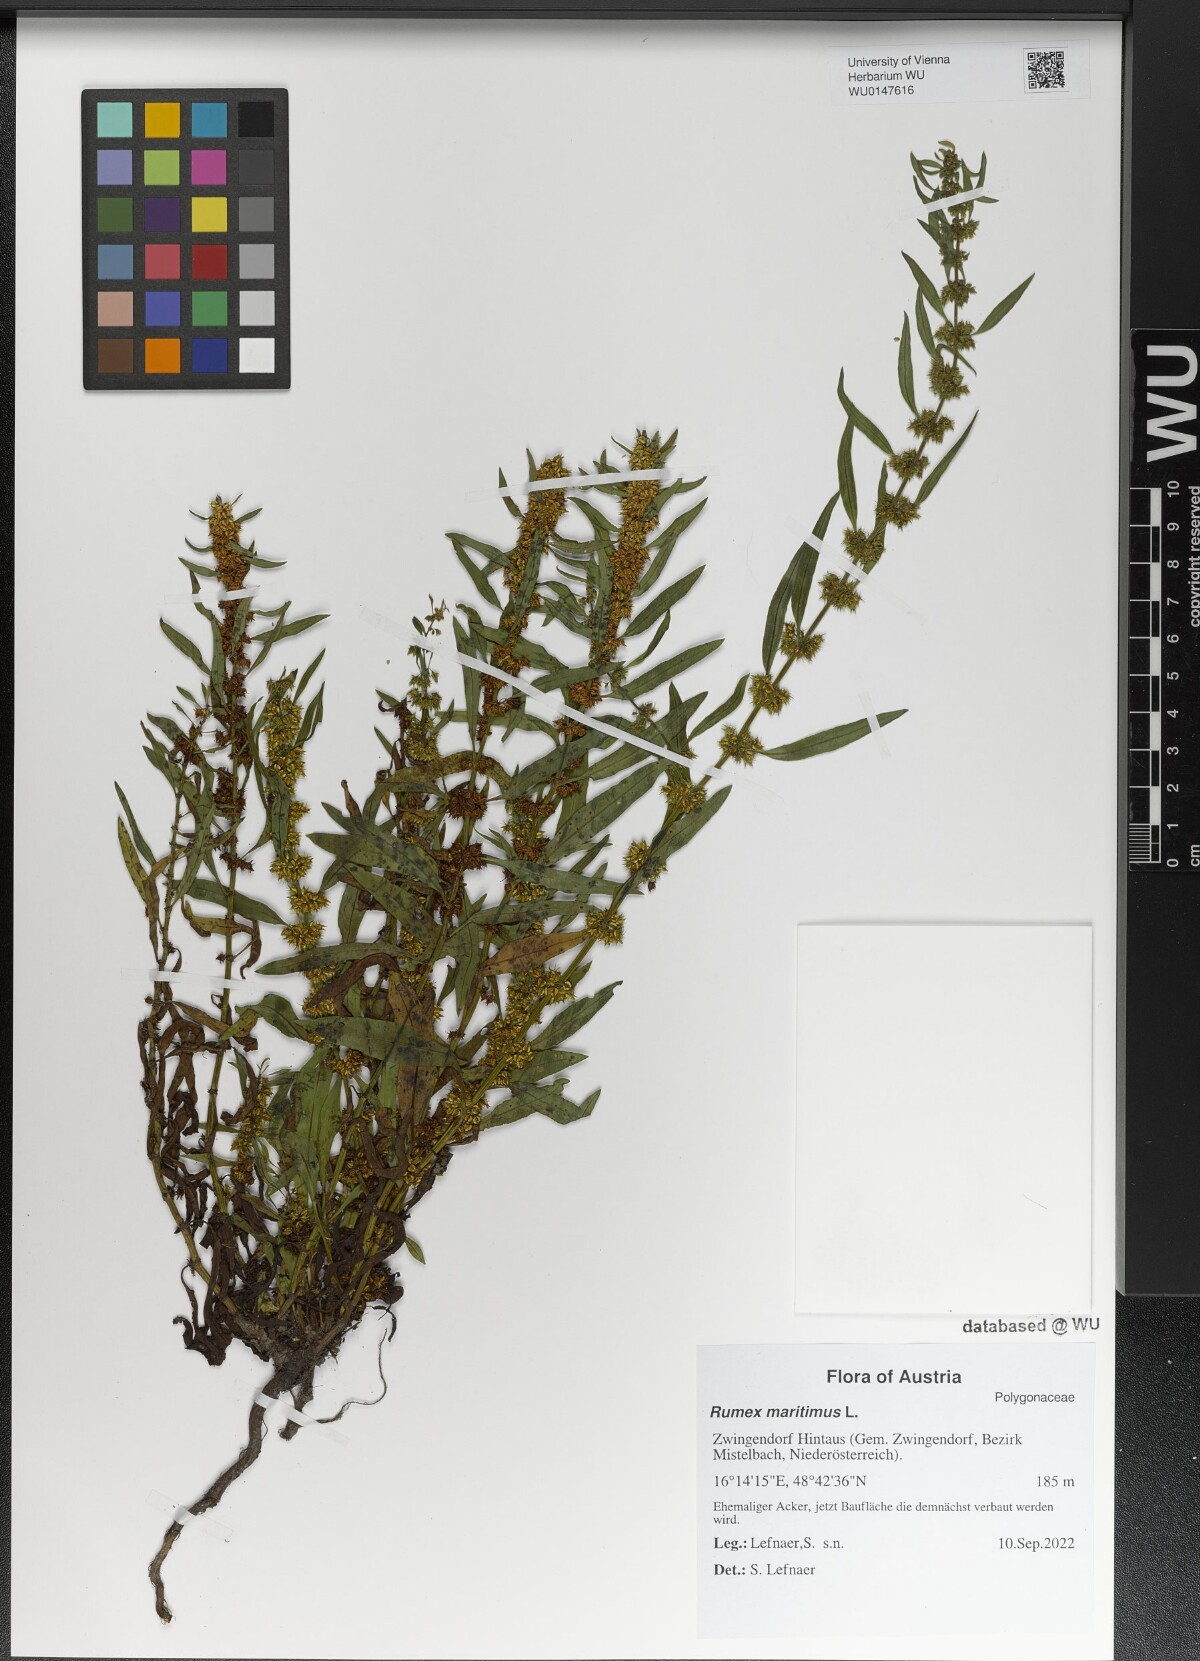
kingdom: Plantae
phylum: Tracheophyta
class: Magnoliopsida
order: Caryophyllales
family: Polygonaceae
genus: Rumex
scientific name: Rumex maritimus
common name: Golden dock
